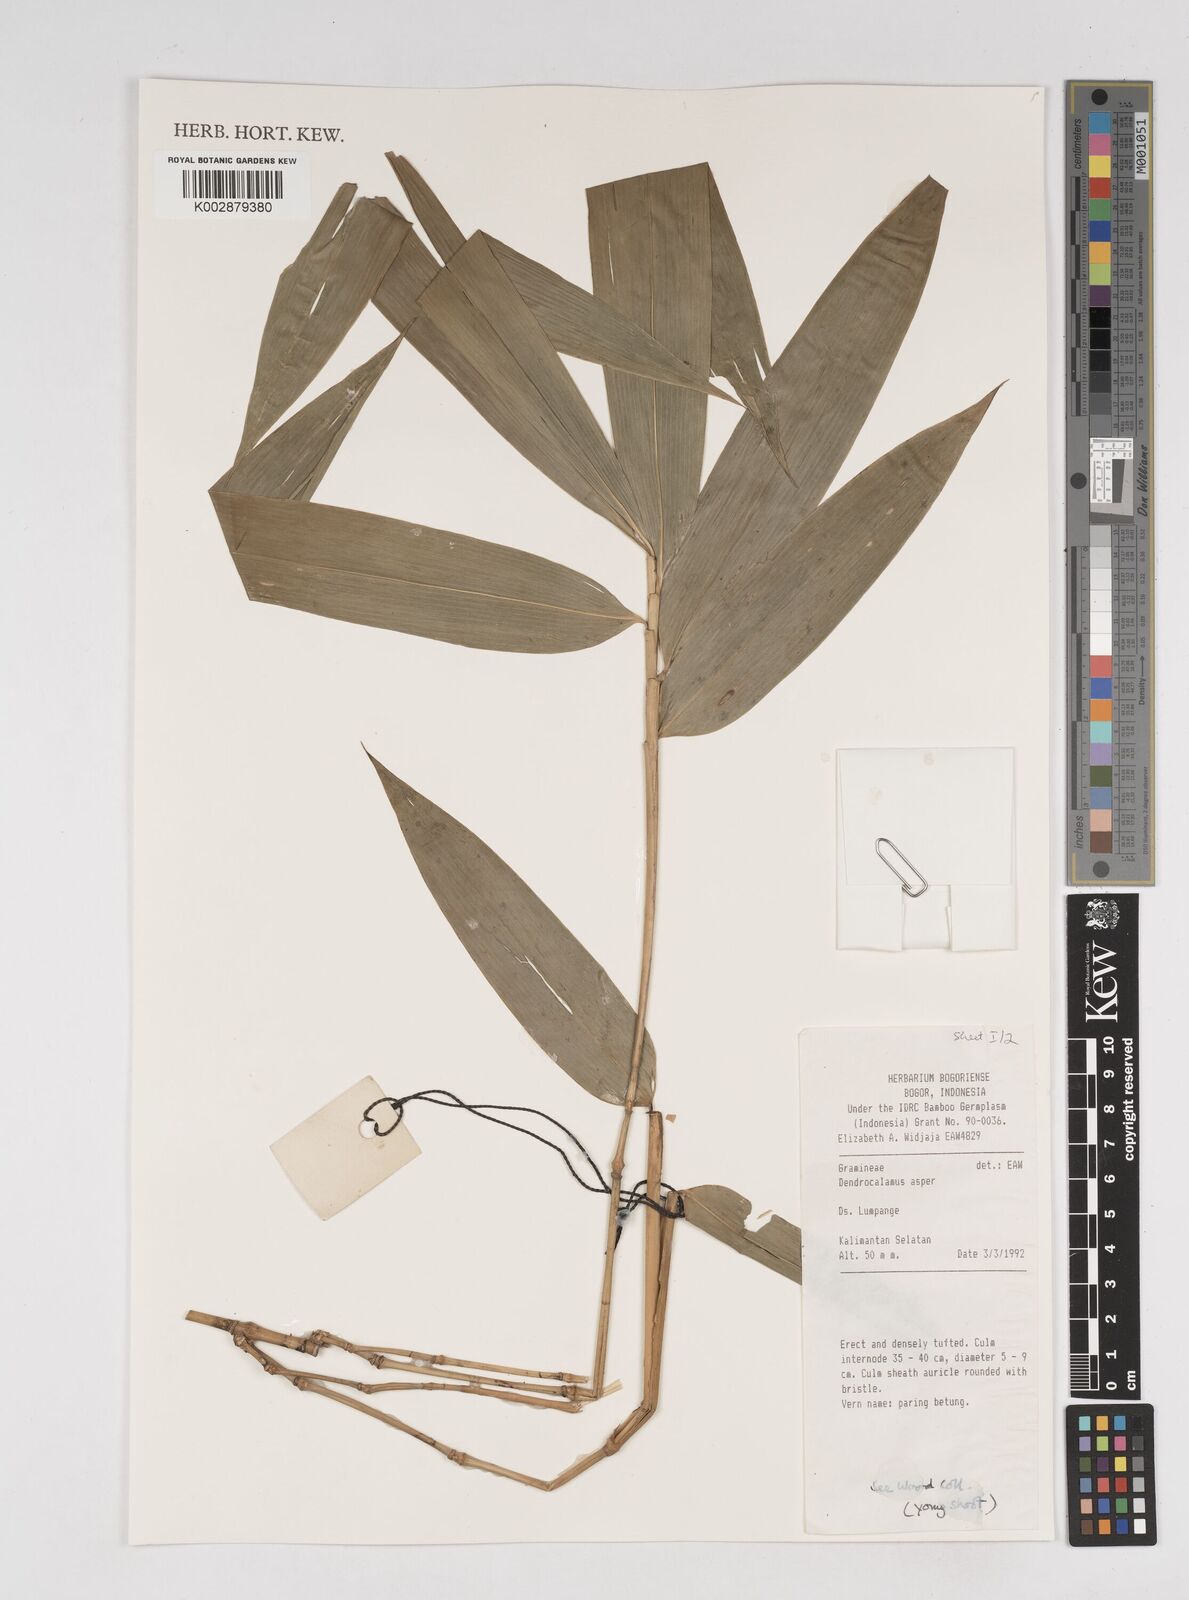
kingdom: Plantae
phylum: Tracheophyta
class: Liliopsida
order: Poales
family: Poaceae
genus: Dendrocalamus
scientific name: Dendrocalamus asper
